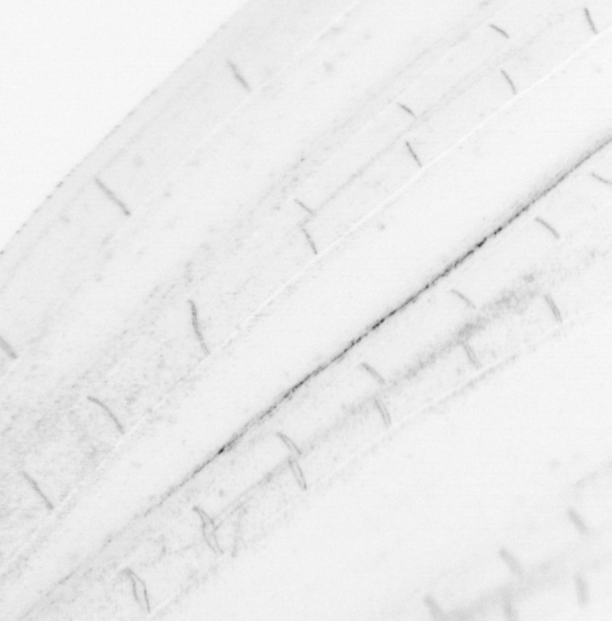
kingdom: Animalia
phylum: Chordata
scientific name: Chordata
